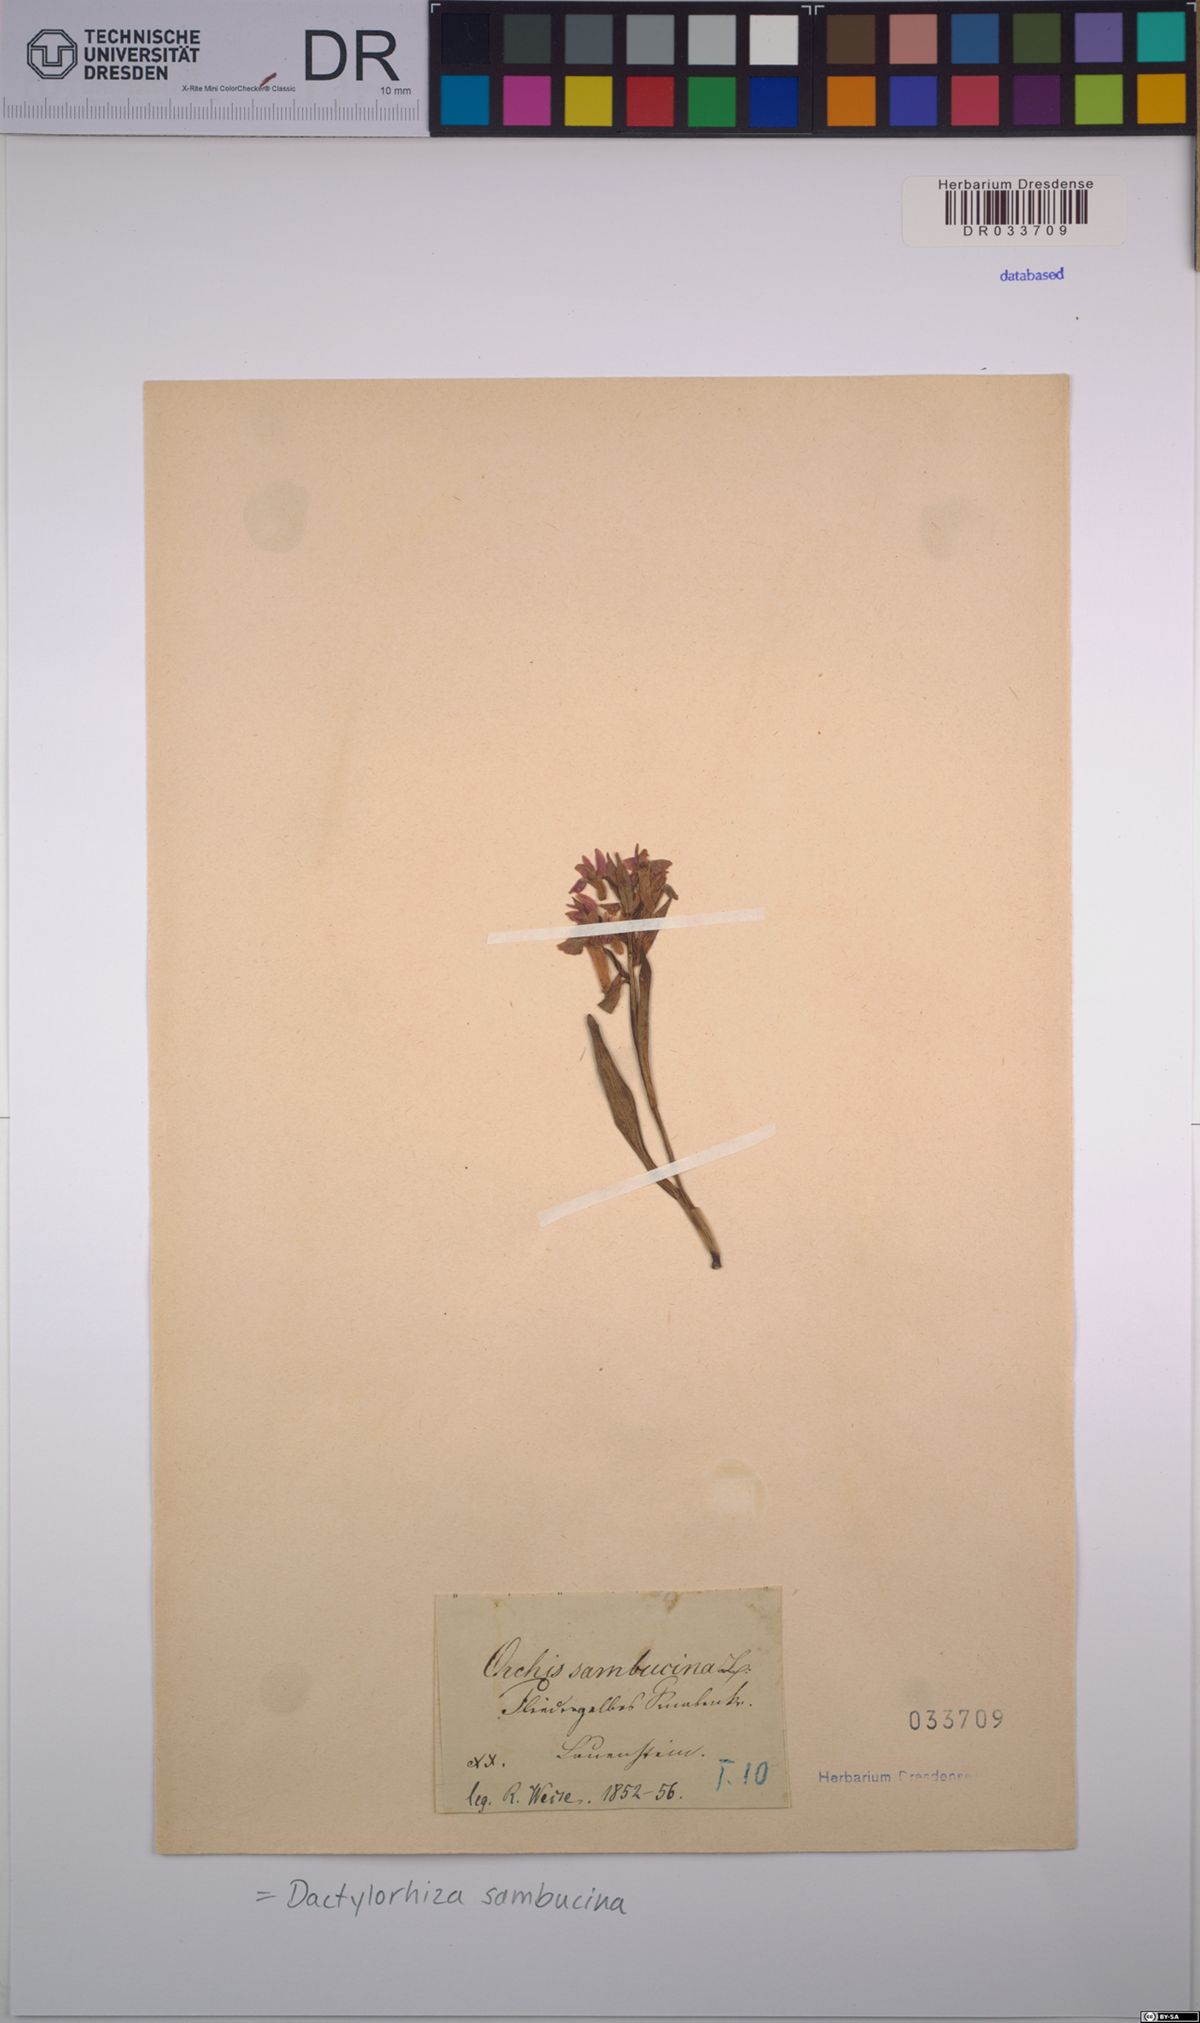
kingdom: Plantae
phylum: Tracheophyta
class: Liliopsida
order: Asparagales
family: Orchidaceae
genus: Dactylorhiza
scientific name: Dactylorhiza sambucina
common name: Elder-flowered orchid
